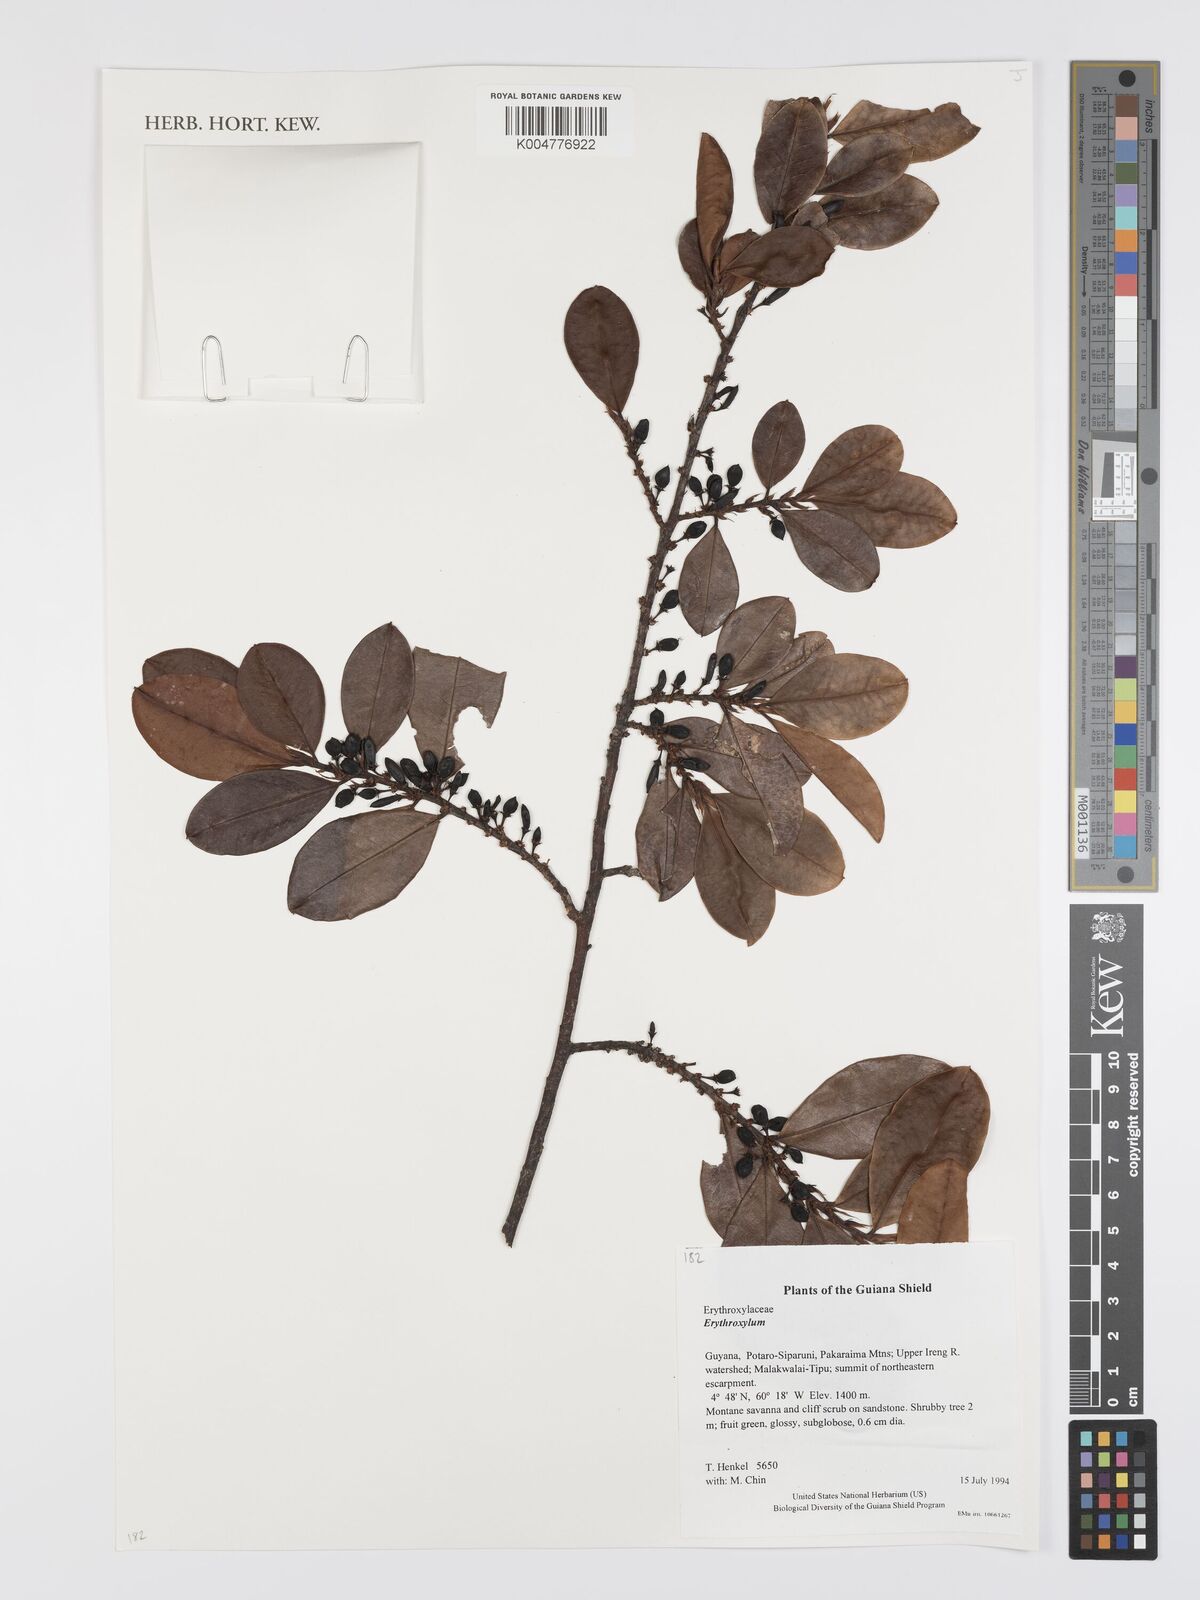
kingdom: Plantae
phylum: Tracheophyta
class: Magnoliopsida
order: Malpighiales
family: Erythroxylaceae
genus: Erythroxylum
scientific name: Erythroxylum
